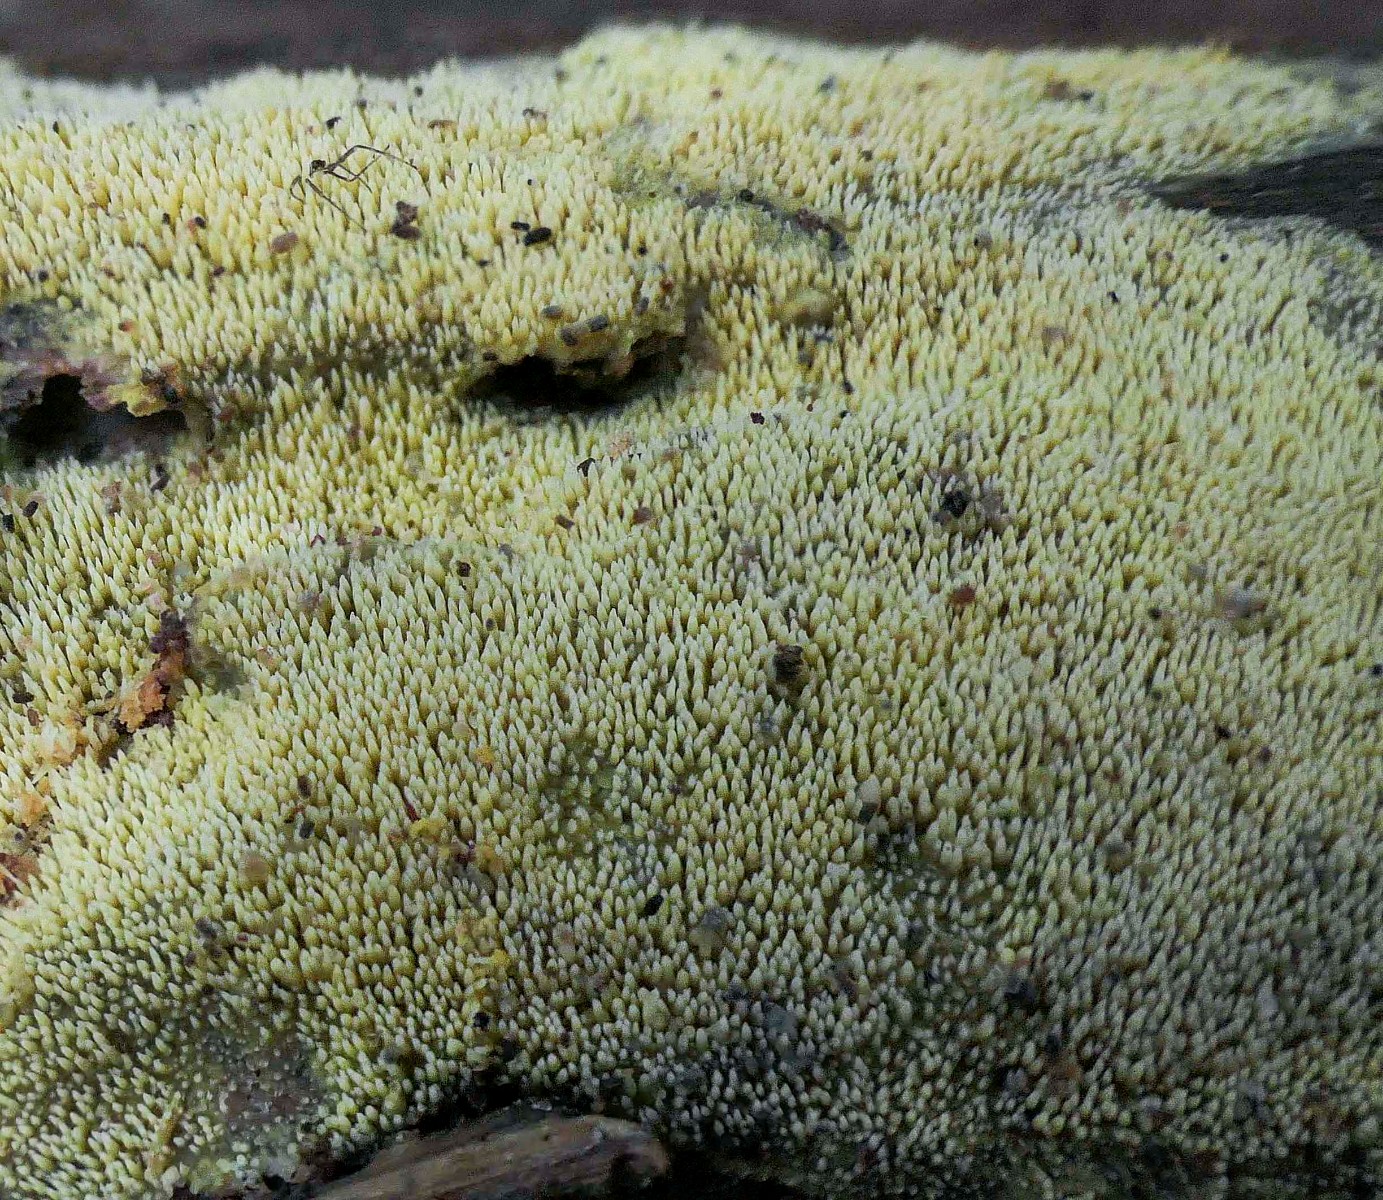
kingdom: Fungi
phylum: Basidiomycota
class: Agaricomycetes
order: Polyporales
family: Meruliaceae
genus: Mycoacia
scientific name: Mycoacia uda
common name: citrongul vokspig
